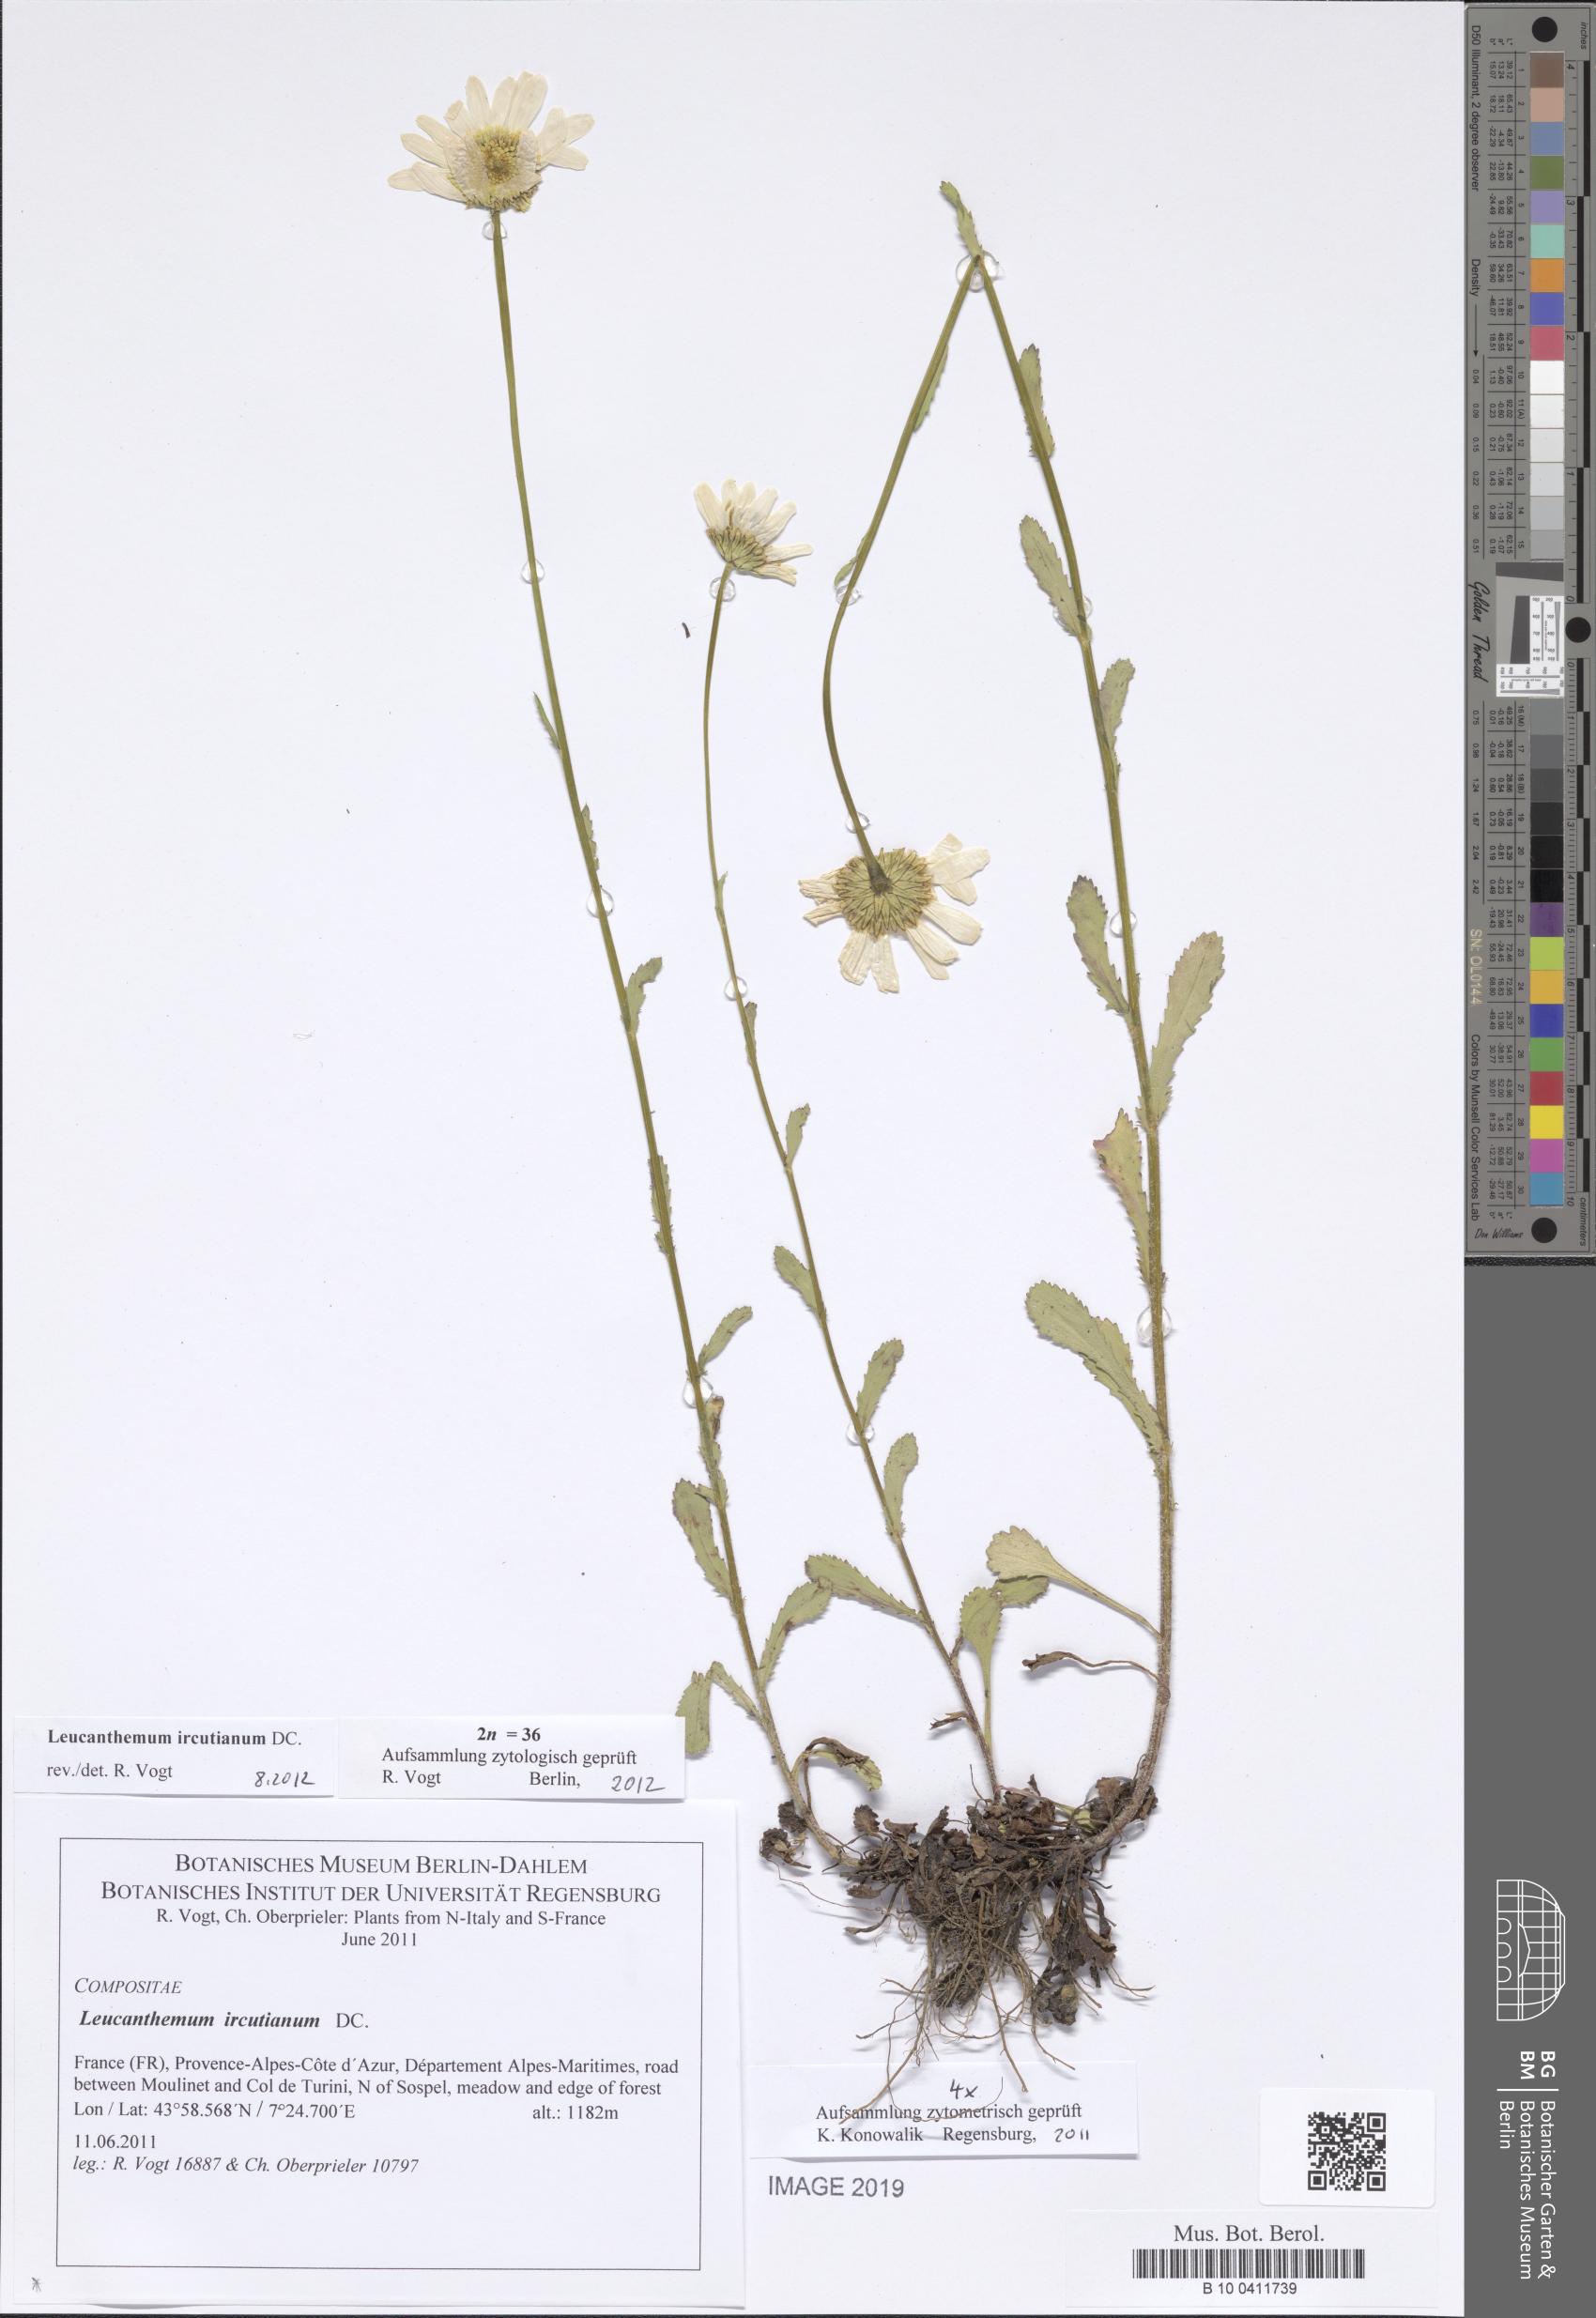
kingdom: Plantae
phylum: Tracheophyta
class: Magnoliopsida
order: Asterales
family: Asteraceae
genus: Leucanthemum
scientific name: Leucanthemum ircutianum
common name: Daisy
